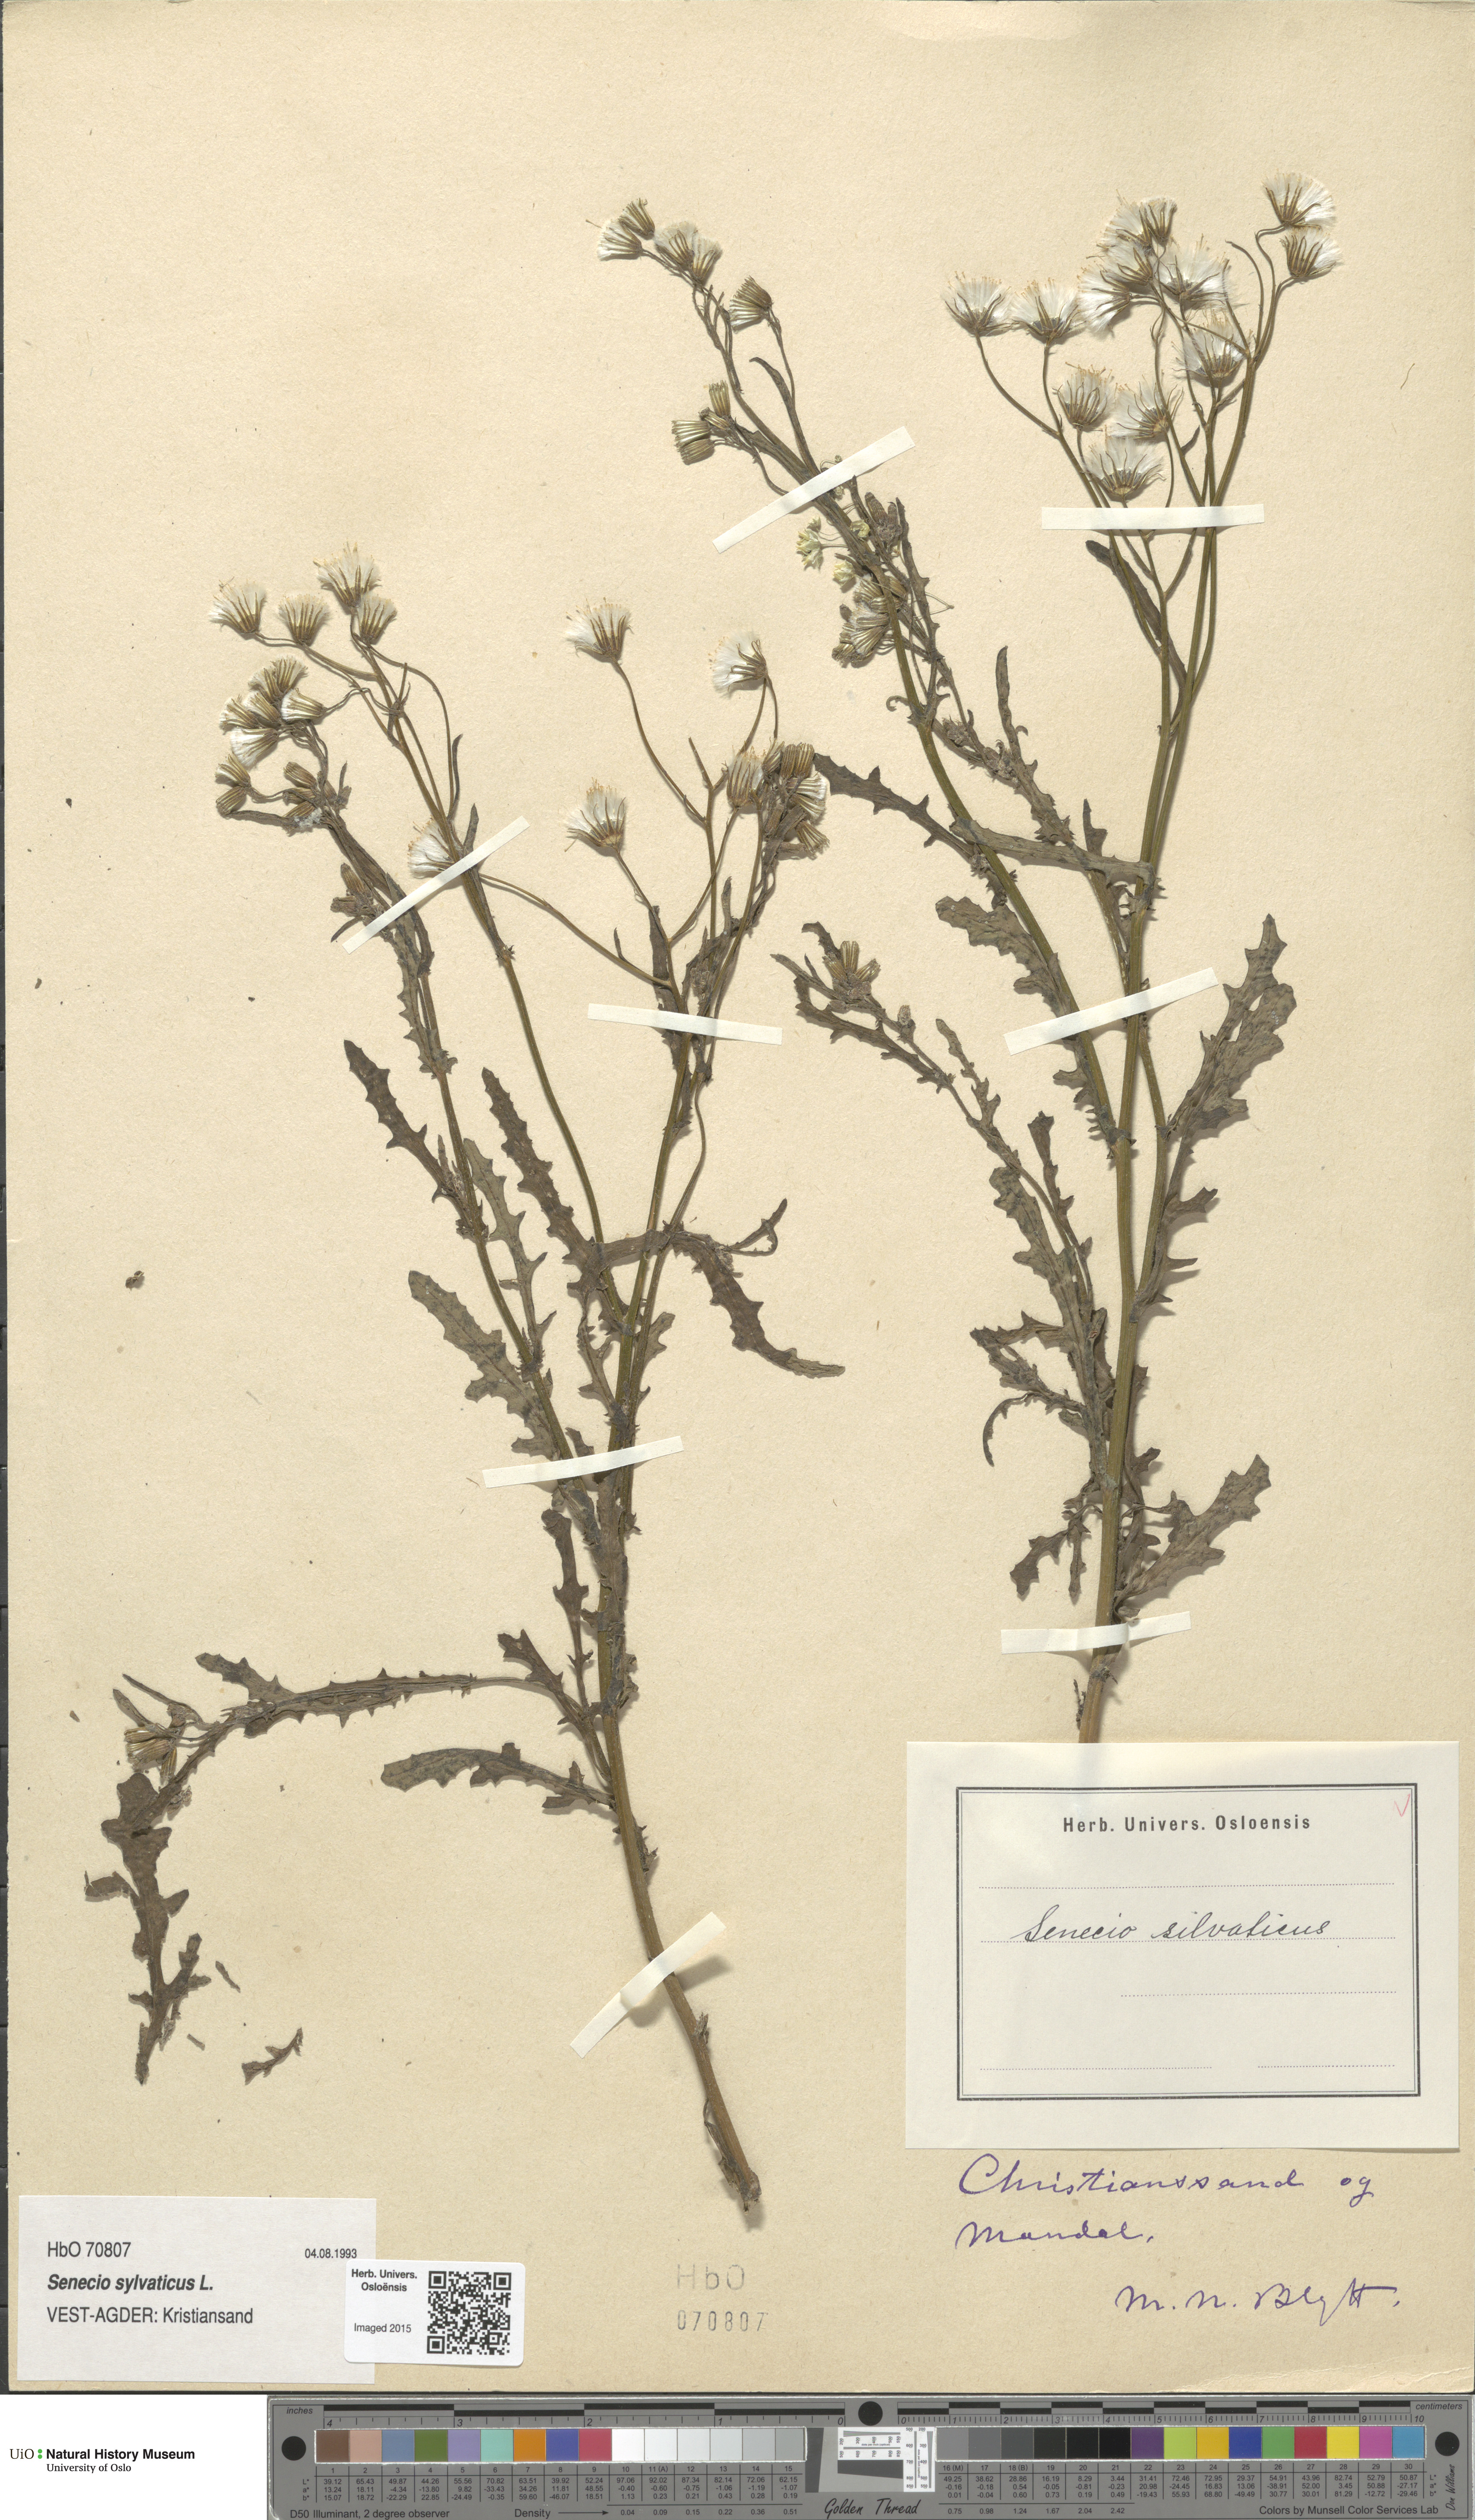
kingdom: Plantae
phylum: Tracheophyta
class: Magnoliopsida
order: Asterales
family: Asteraceae
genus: Senecio
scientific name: Senecio sylvaticus
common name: Woodland ragwort
